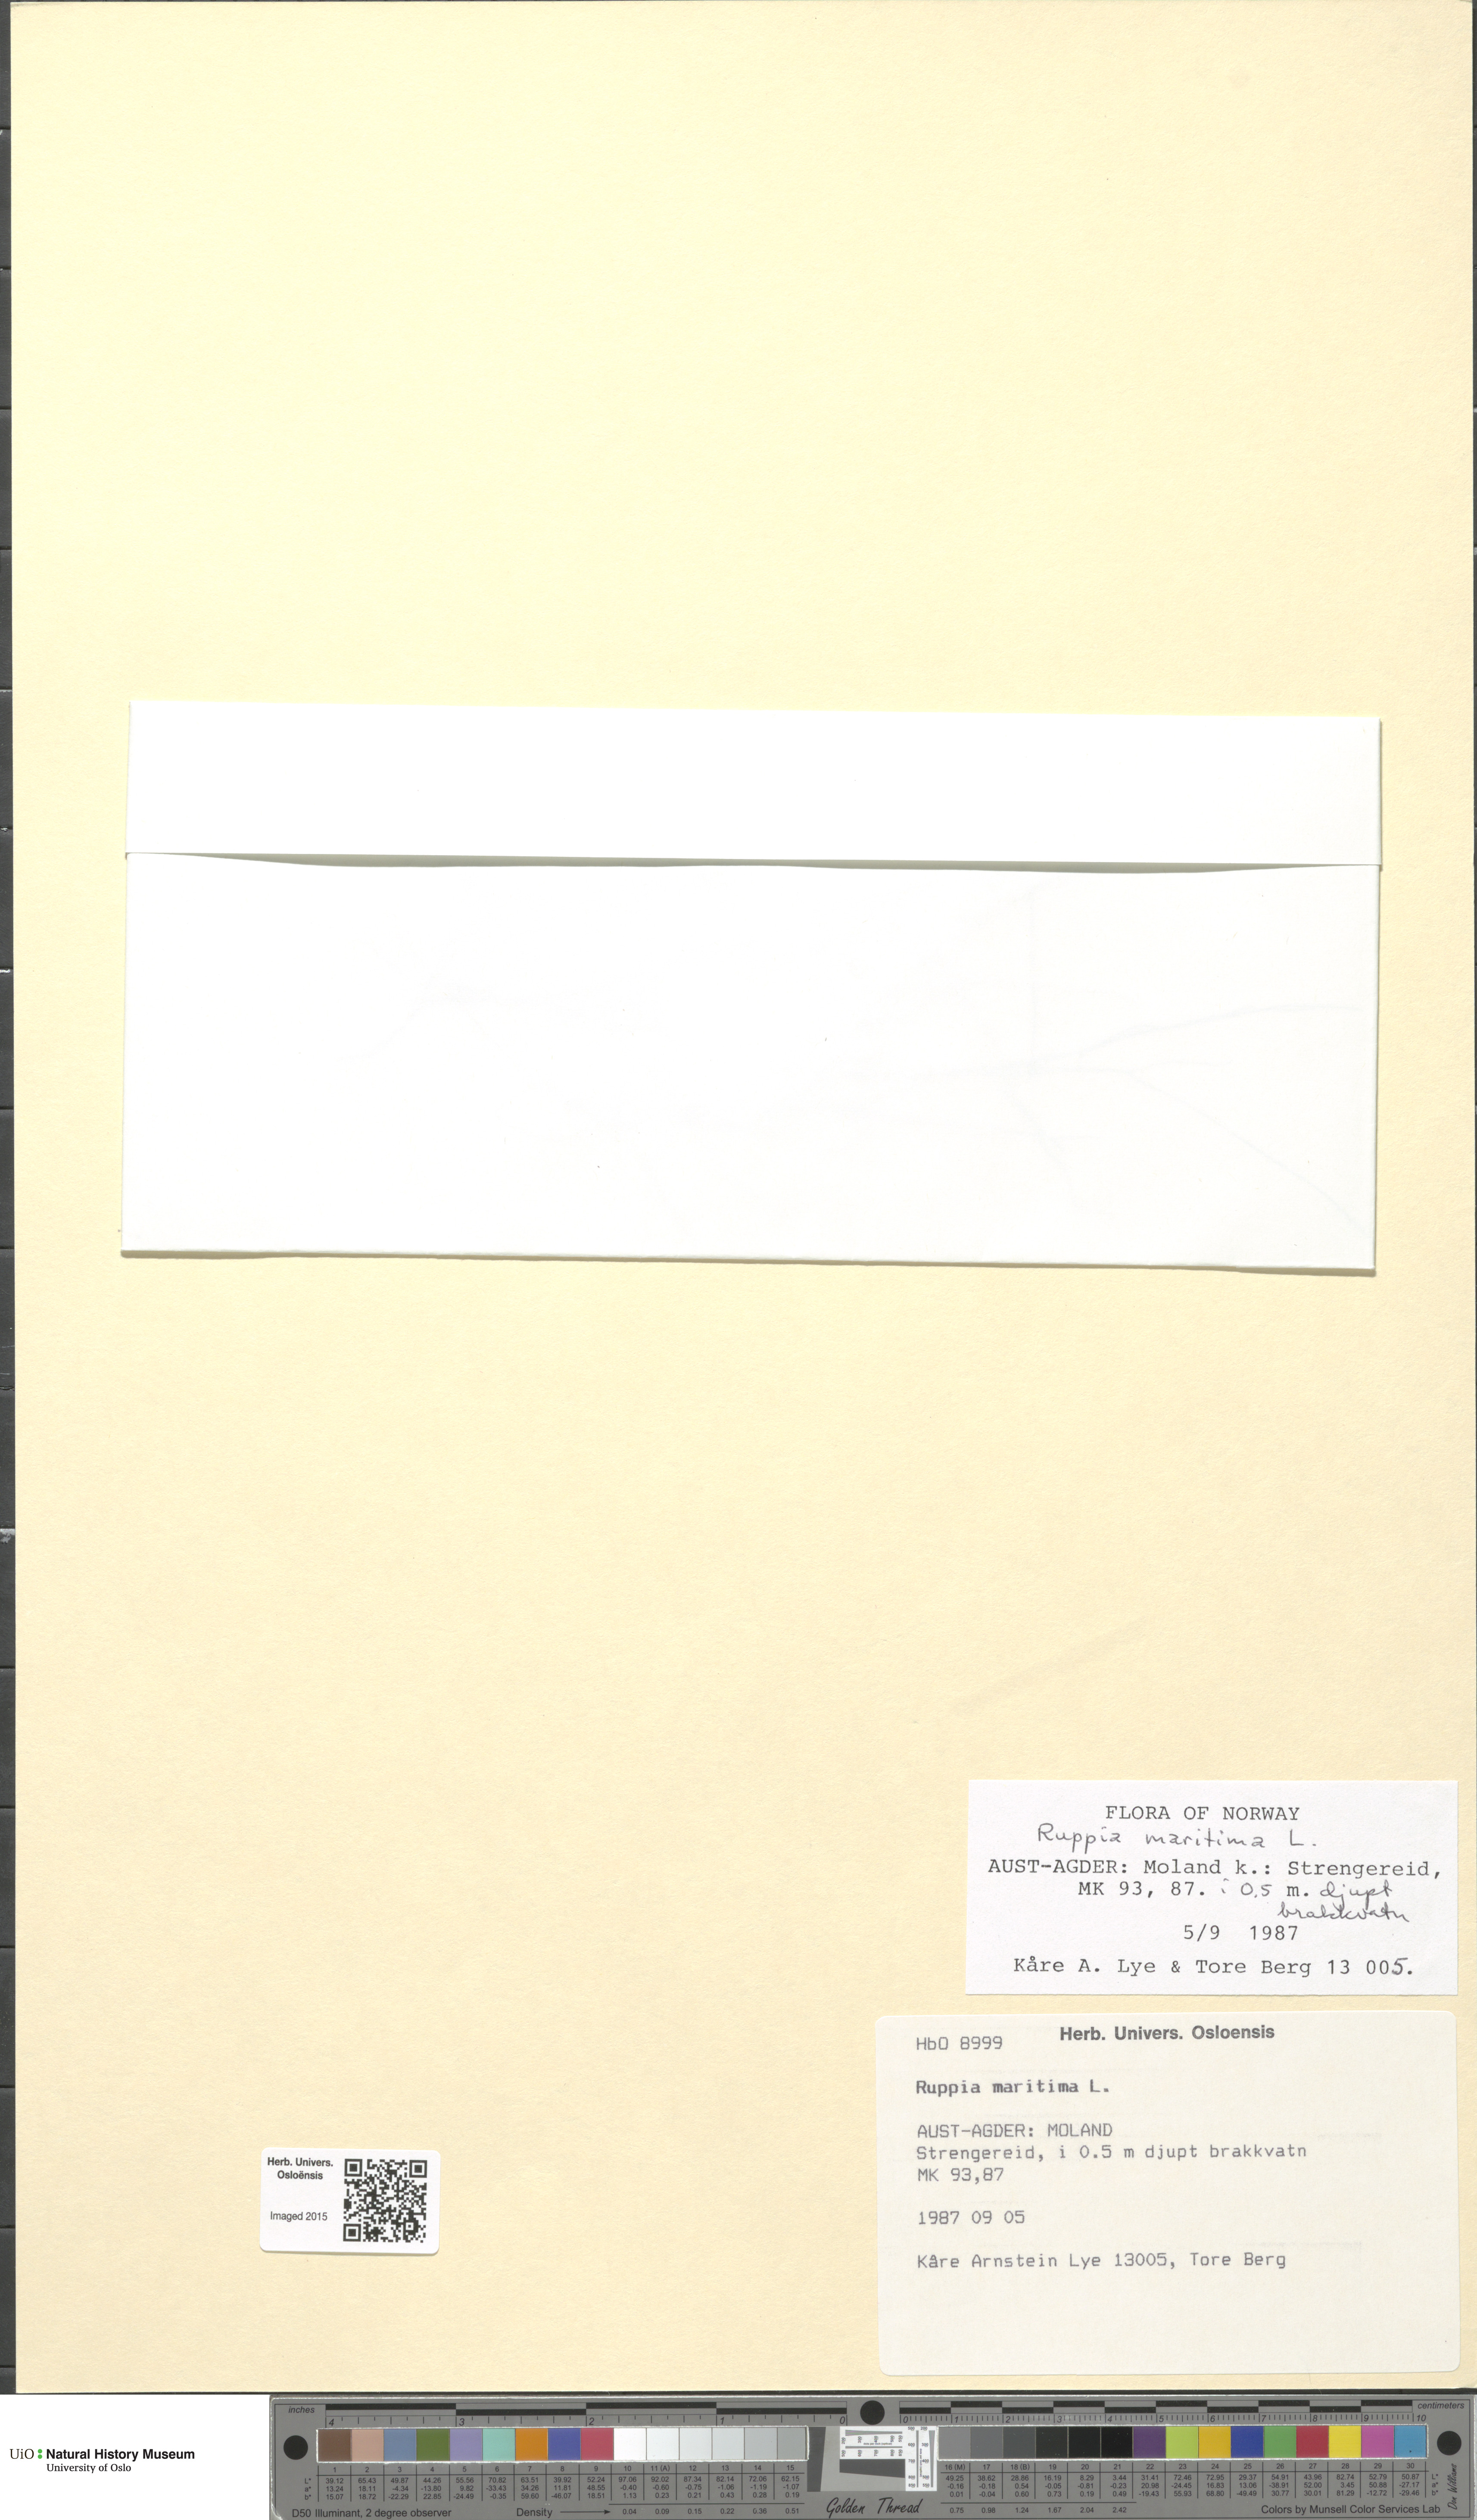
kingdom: Plantae
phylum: Tracheophyta
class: Liliopsida
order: Alismatales
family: Ruppiaceae
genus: Ruppia
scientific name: Ruppia maritima
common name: Beaked tasselweed
